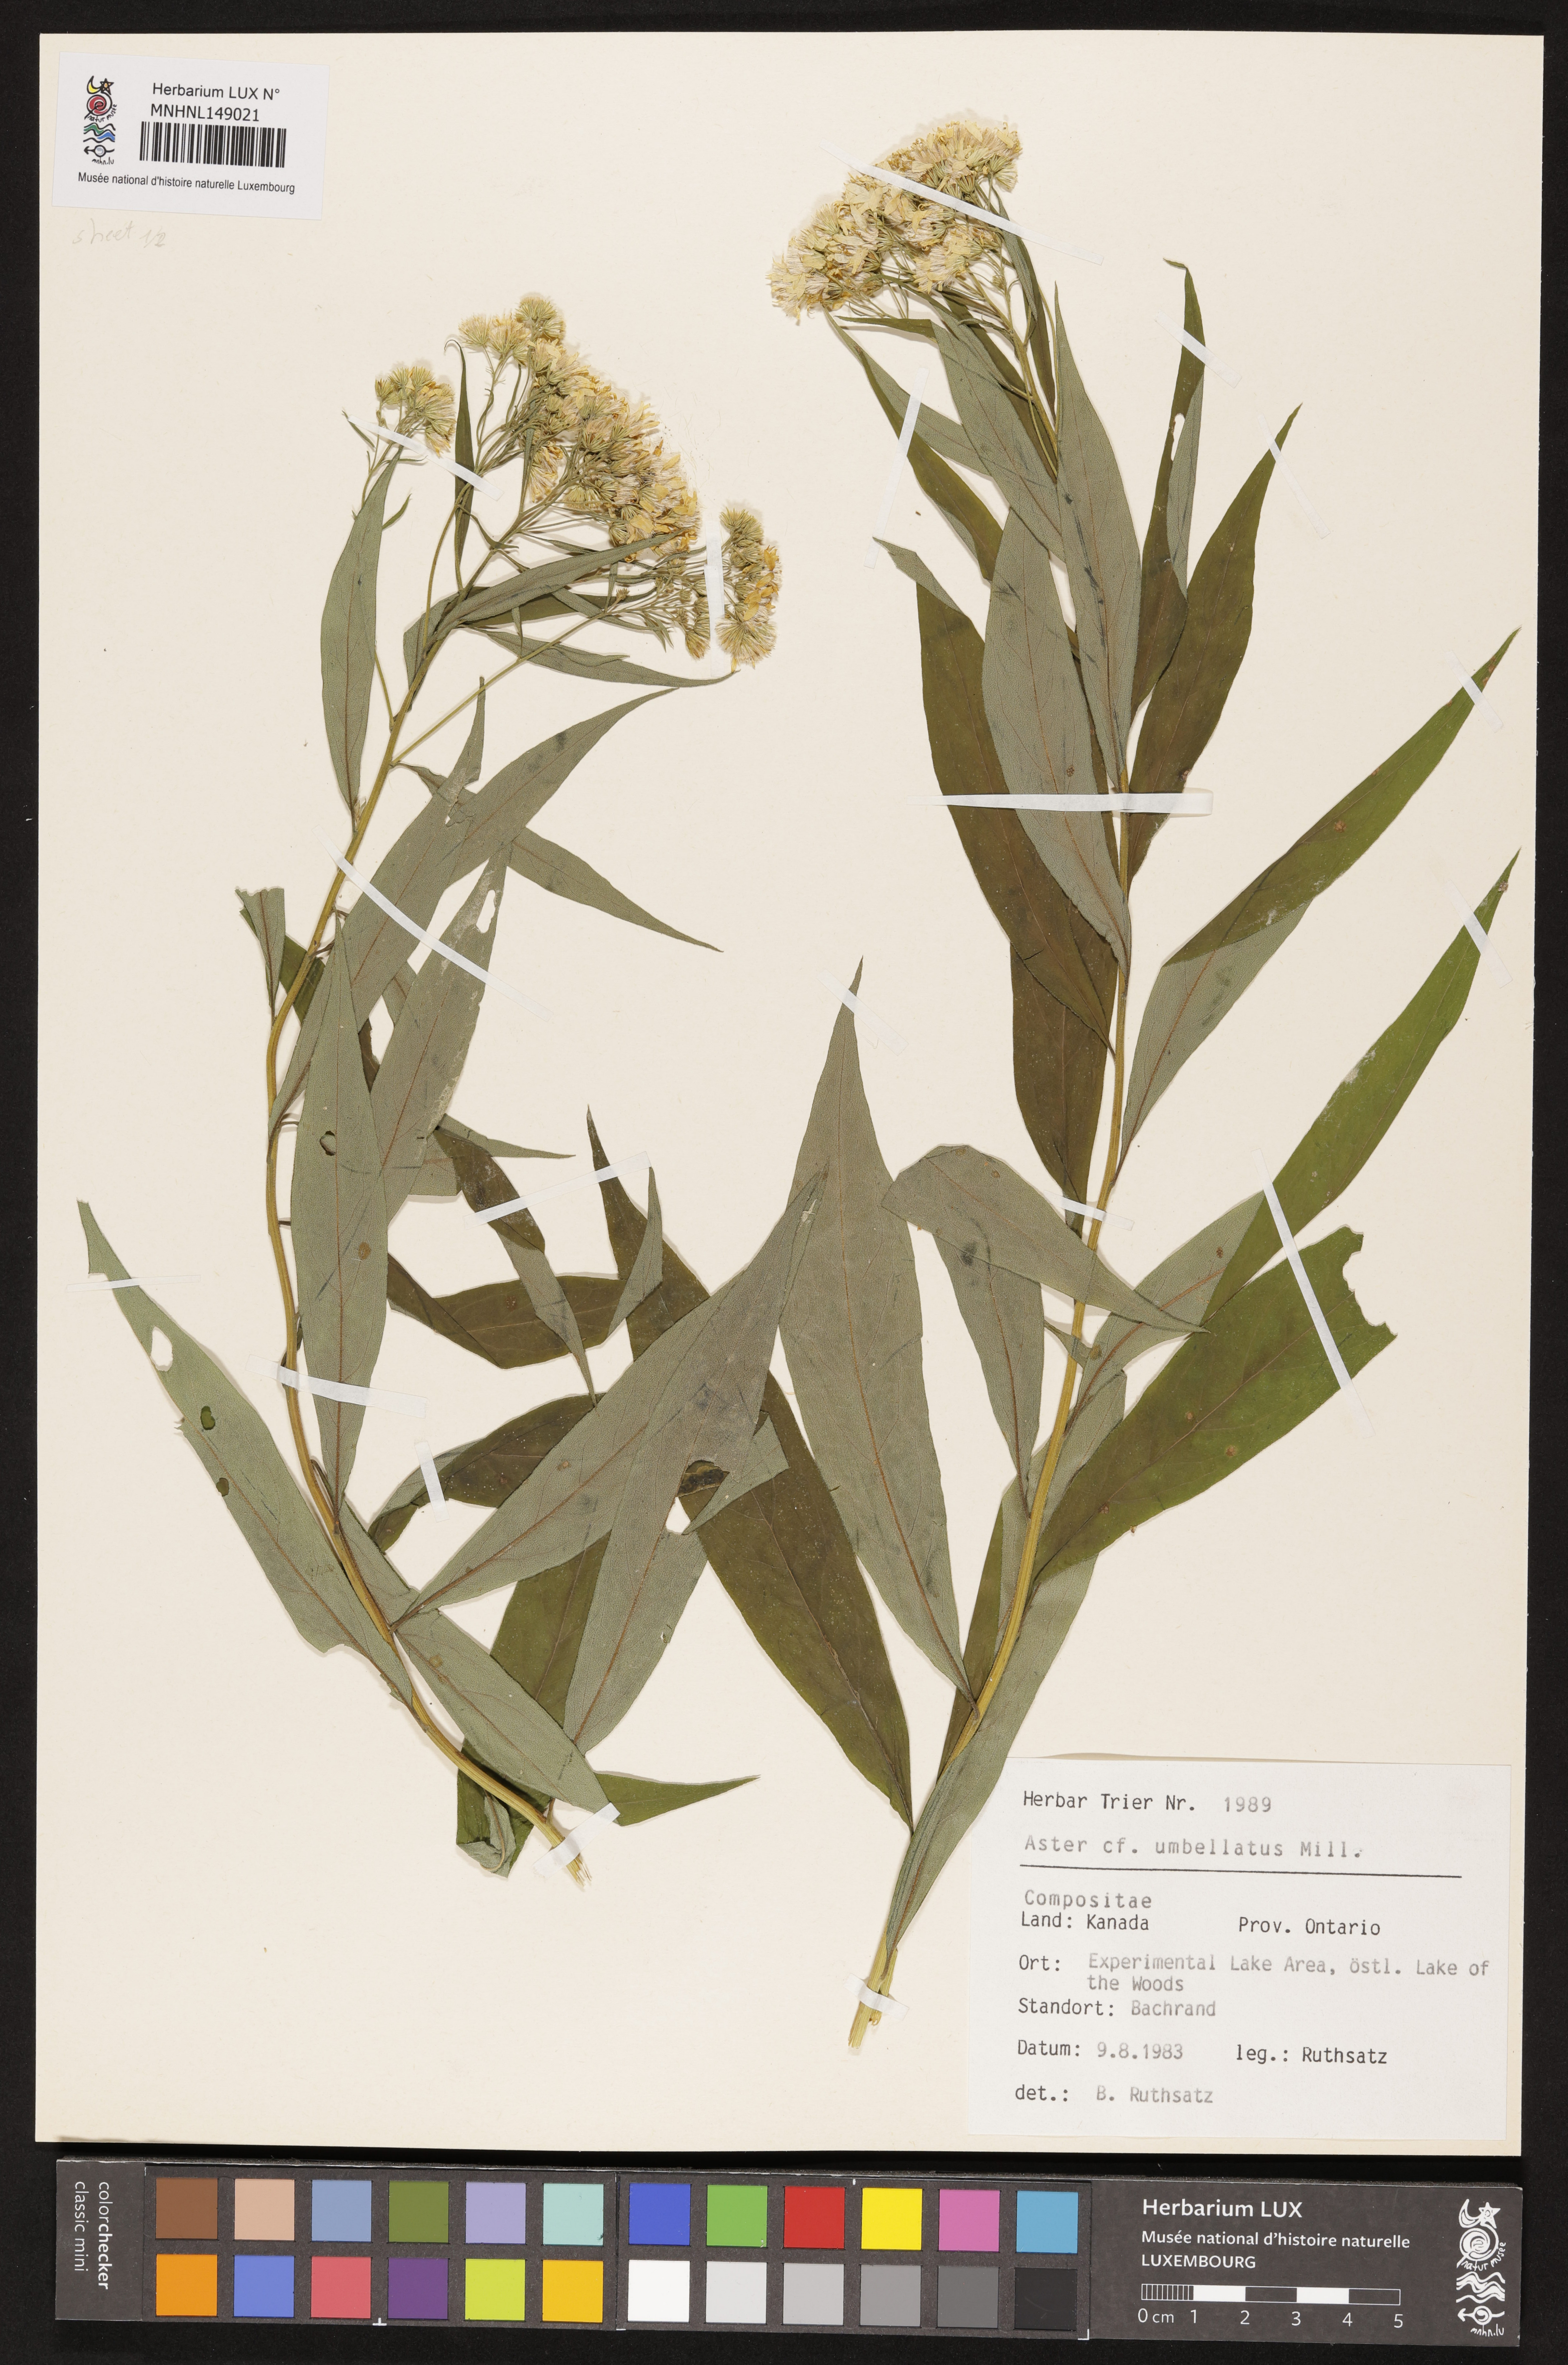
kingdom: Plantae
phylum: Tracheophyta
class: Magnoliopsida
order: Asterales
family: Asteraceae
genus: Doellingeria
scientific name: Doellingeria umbellata
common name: Flat-top white aster
